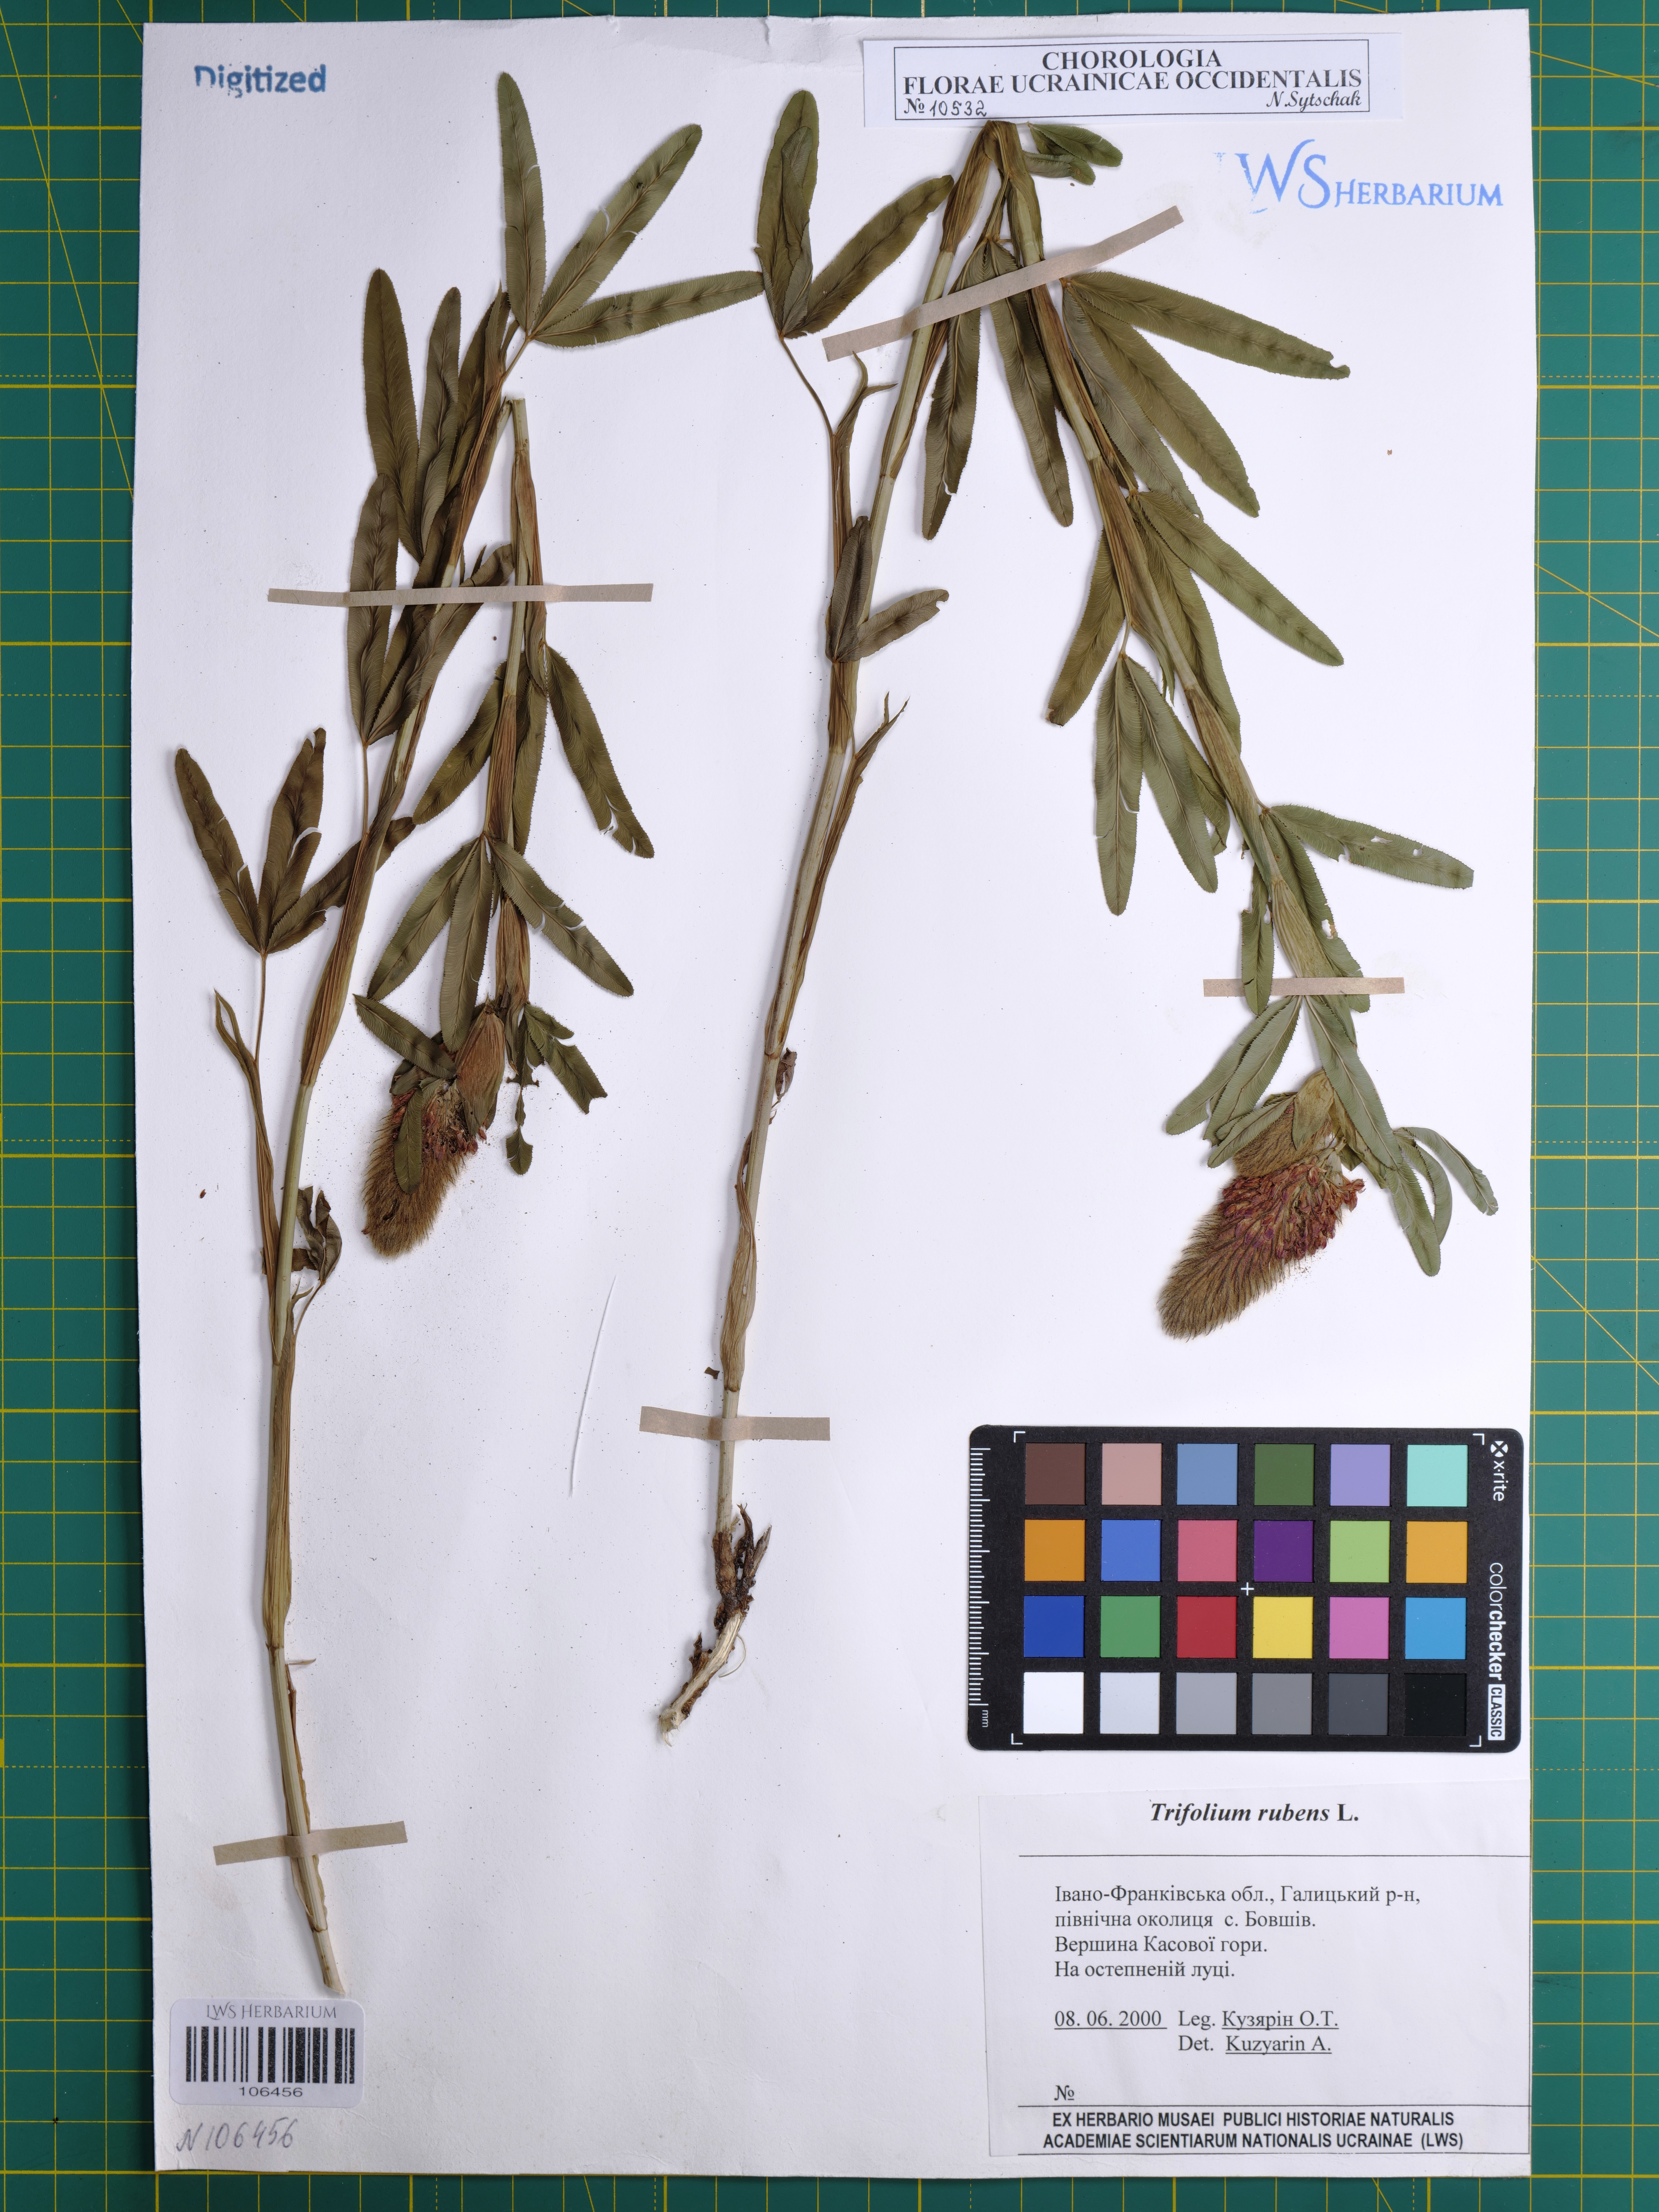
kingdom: Plantae
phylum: Tracheophyta
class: Magnoliopsida
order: Fabales
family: Fabaceae
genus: Trifolium
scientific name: Trifolium rubens
